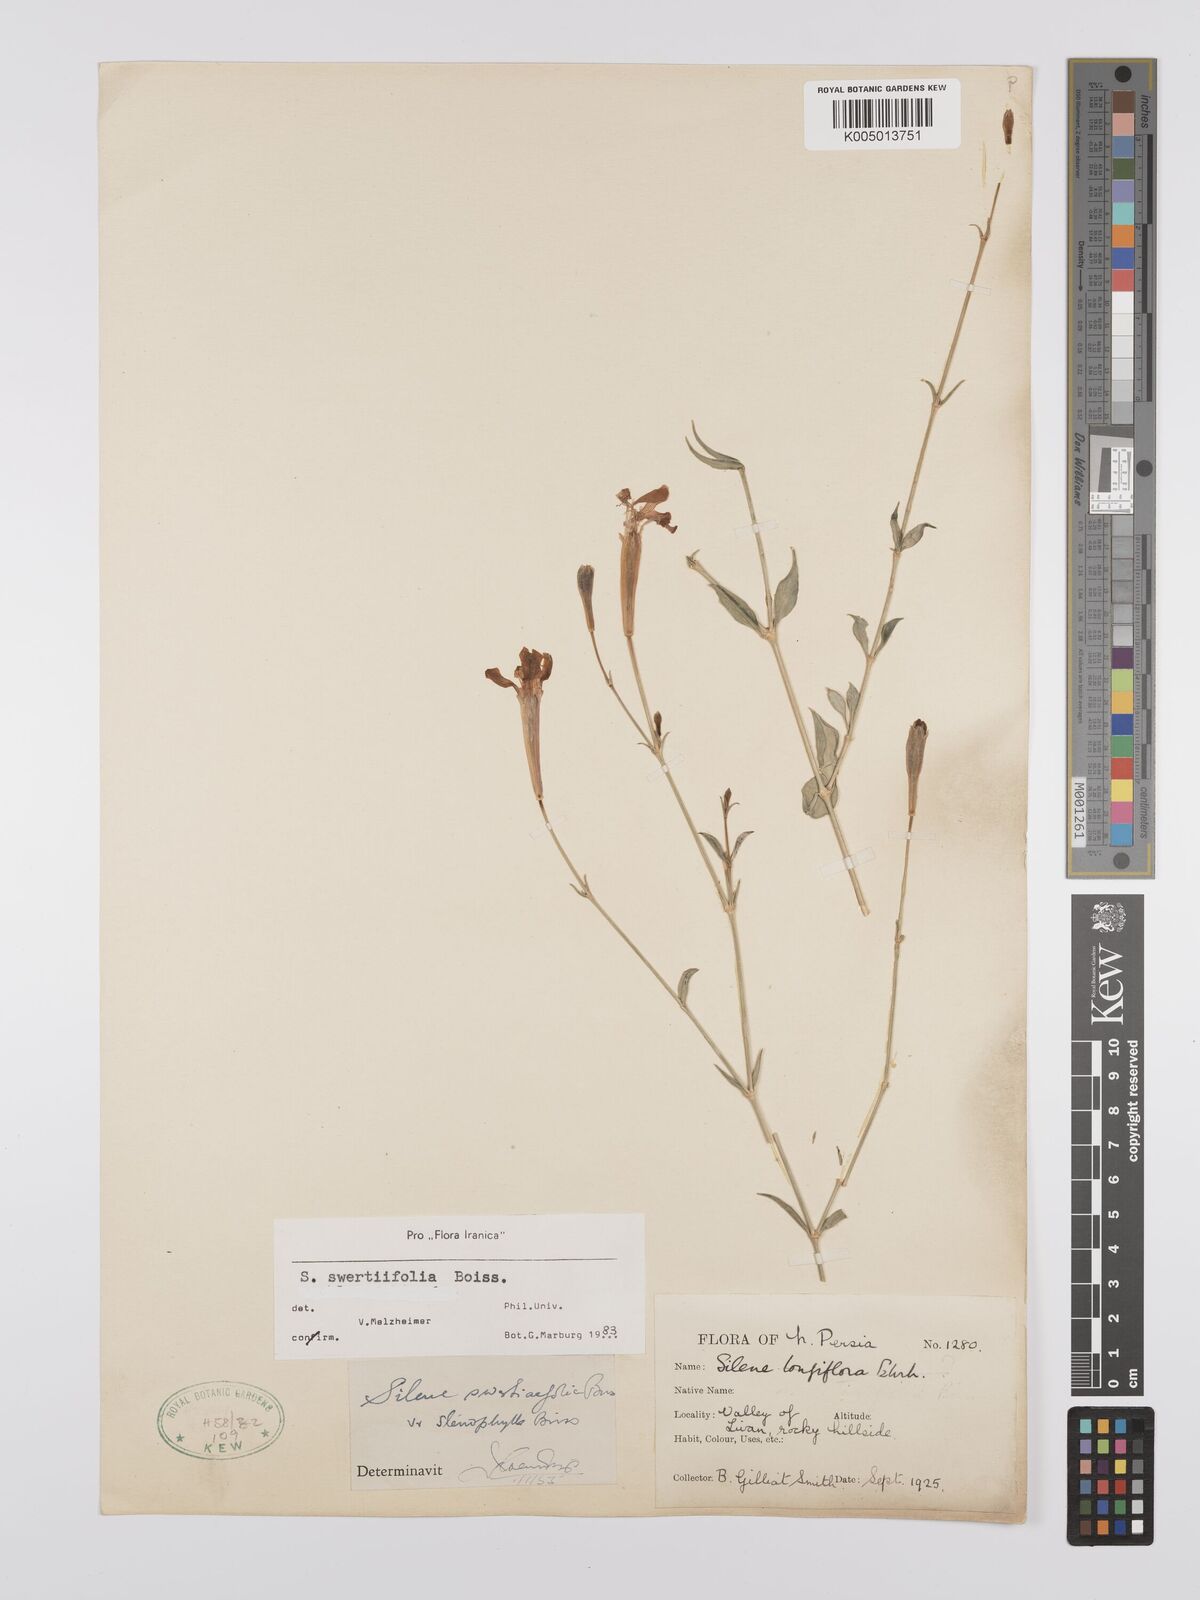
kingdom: Plantae
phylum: Tracheophyta
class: Magnoliopsida
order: Caryophyllales
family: Caryophyllaceae
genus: Silene
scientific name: Silene swertiifolia
